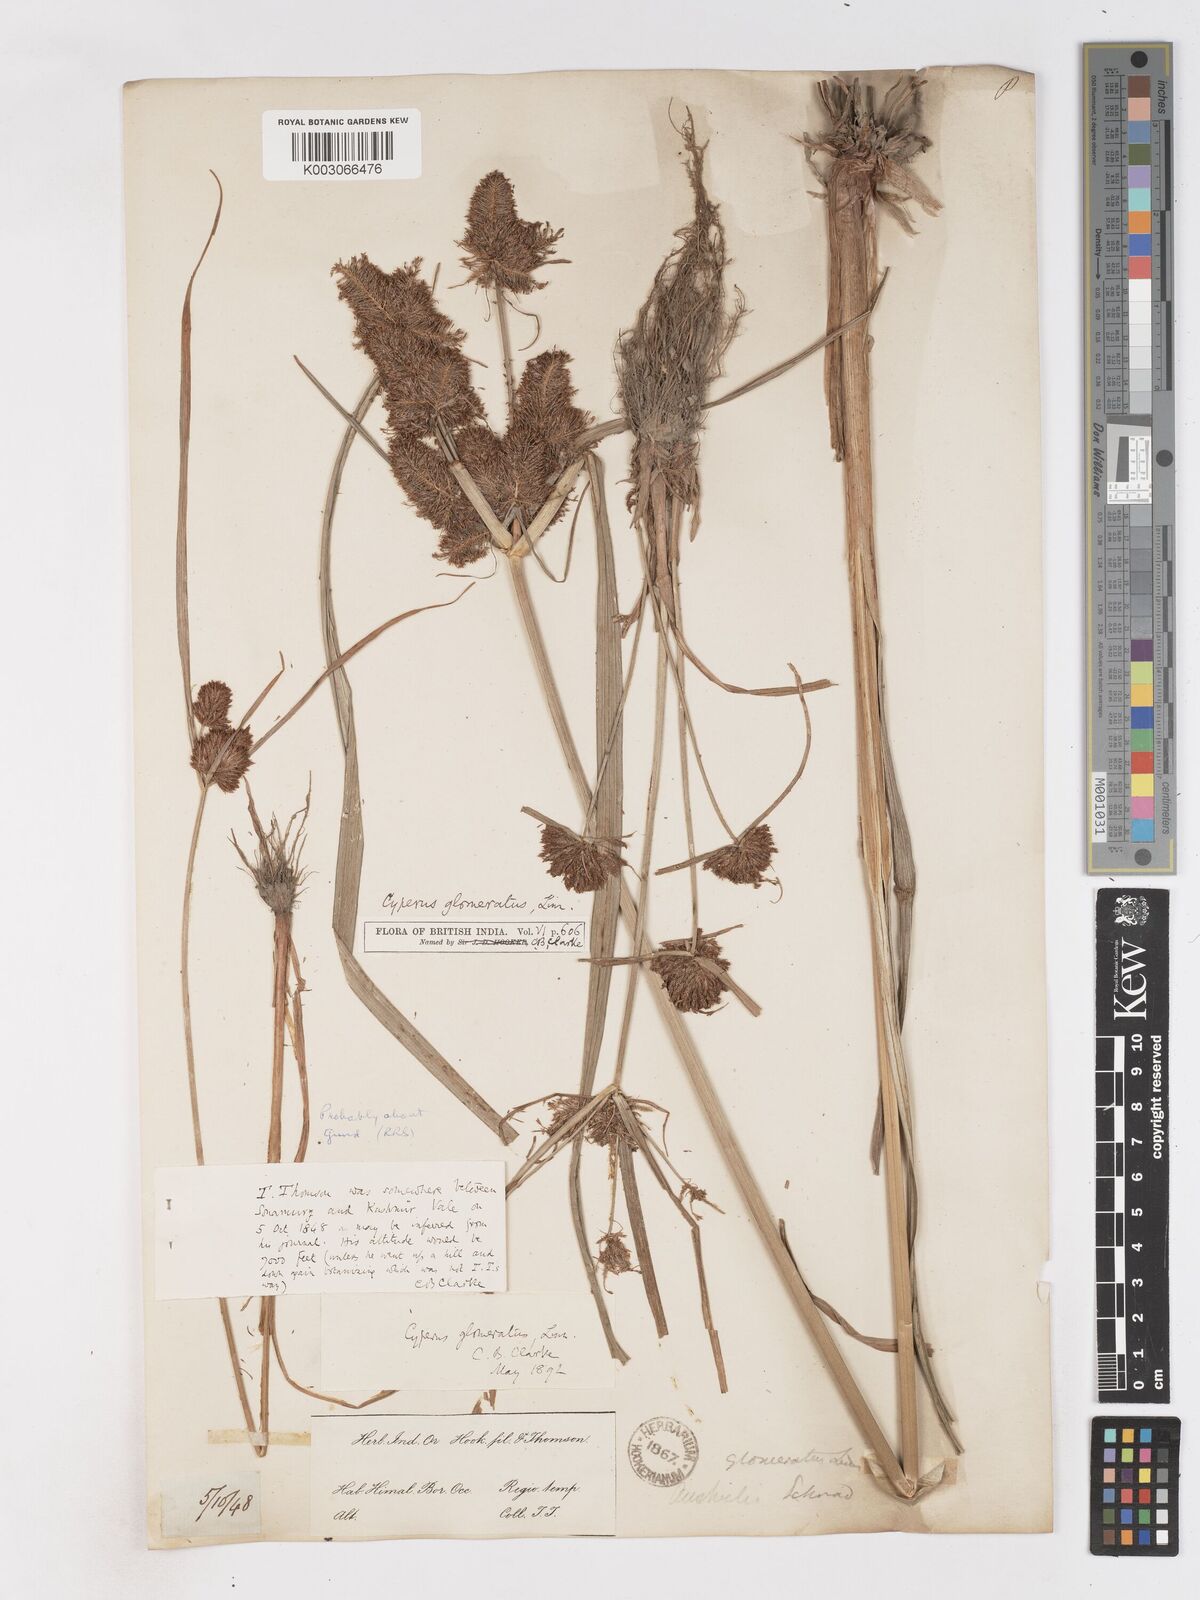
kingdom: Plantae
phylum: Tracheophyta
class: Liliopsida
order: Poales
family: Cyperaceae
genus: Cyperus
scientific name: Cyperus glomeratus
